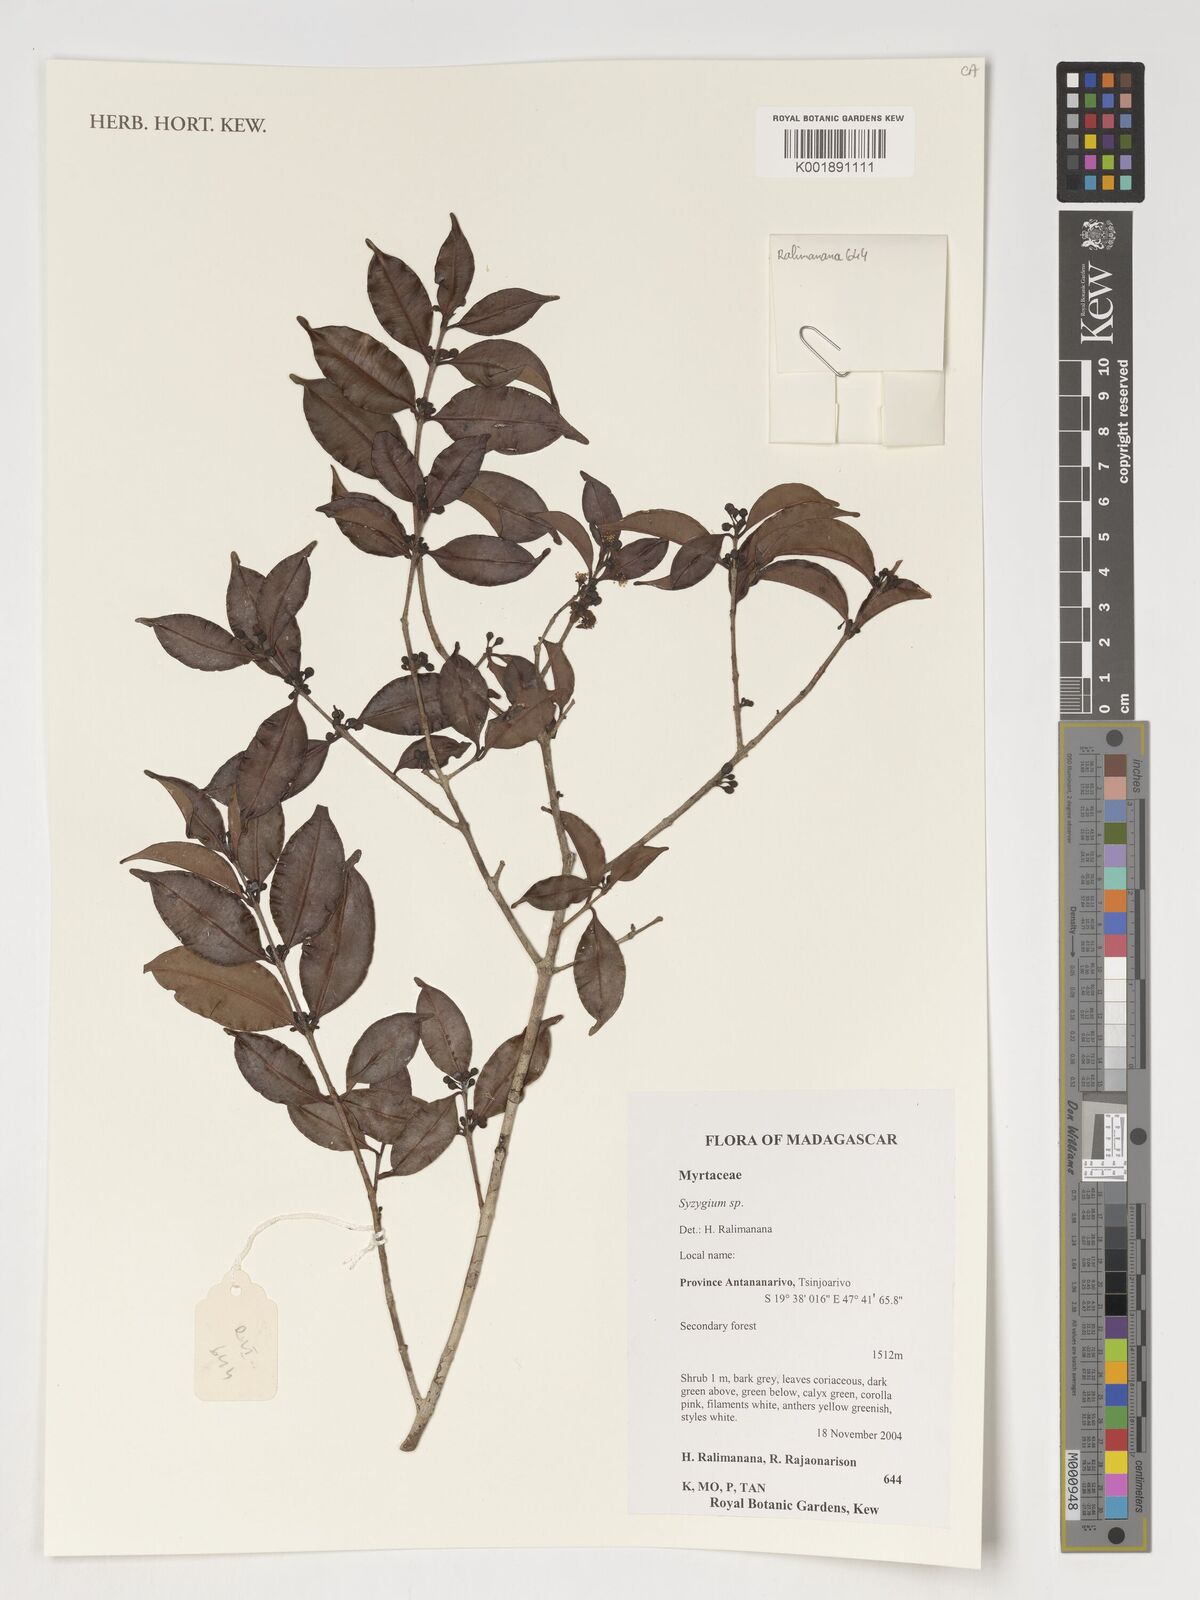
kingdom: Plantae
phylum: Tracheophyta
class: Magnoliopsida
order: Myrtales
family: Myrtaceae
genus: Syzygium
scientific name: Syzygium
